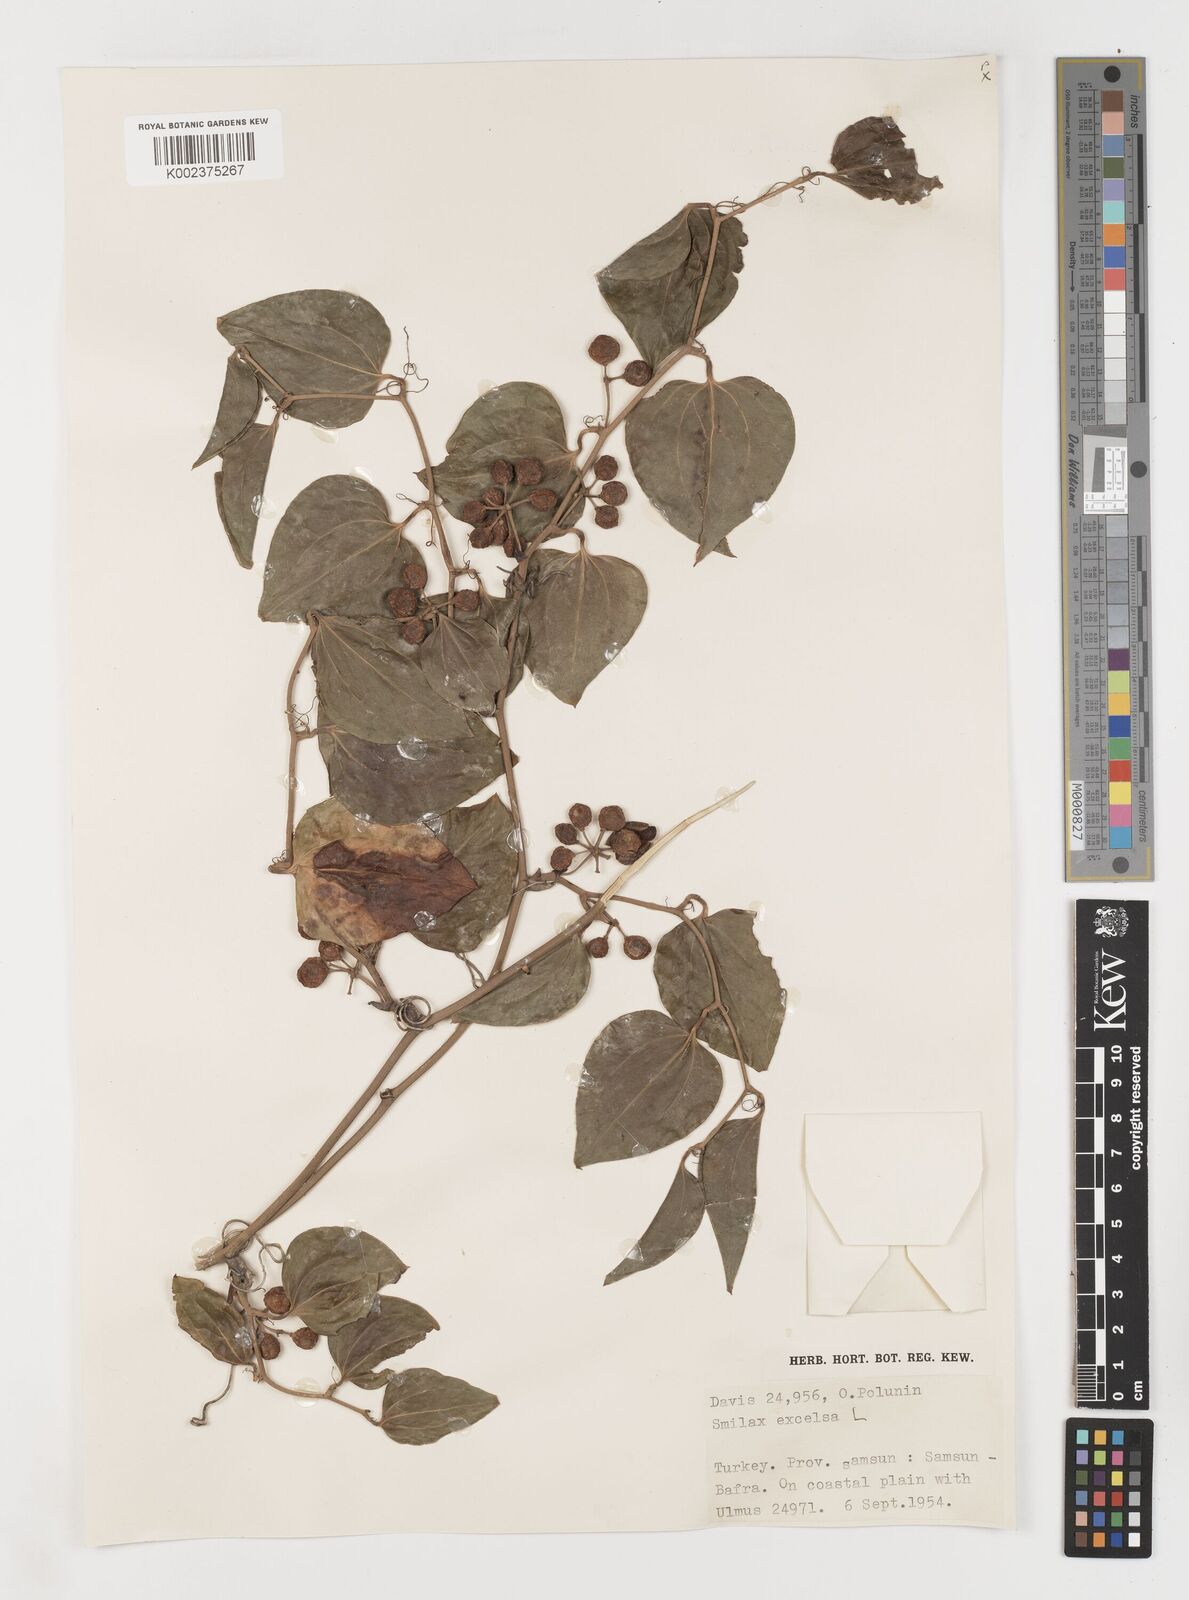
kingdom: Plantae
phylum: Tracheophyta
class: Liliopsida
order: Liliales
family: Smilacaceae
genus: Smilax
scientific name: Smilax excelsa
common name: Larger smilax
